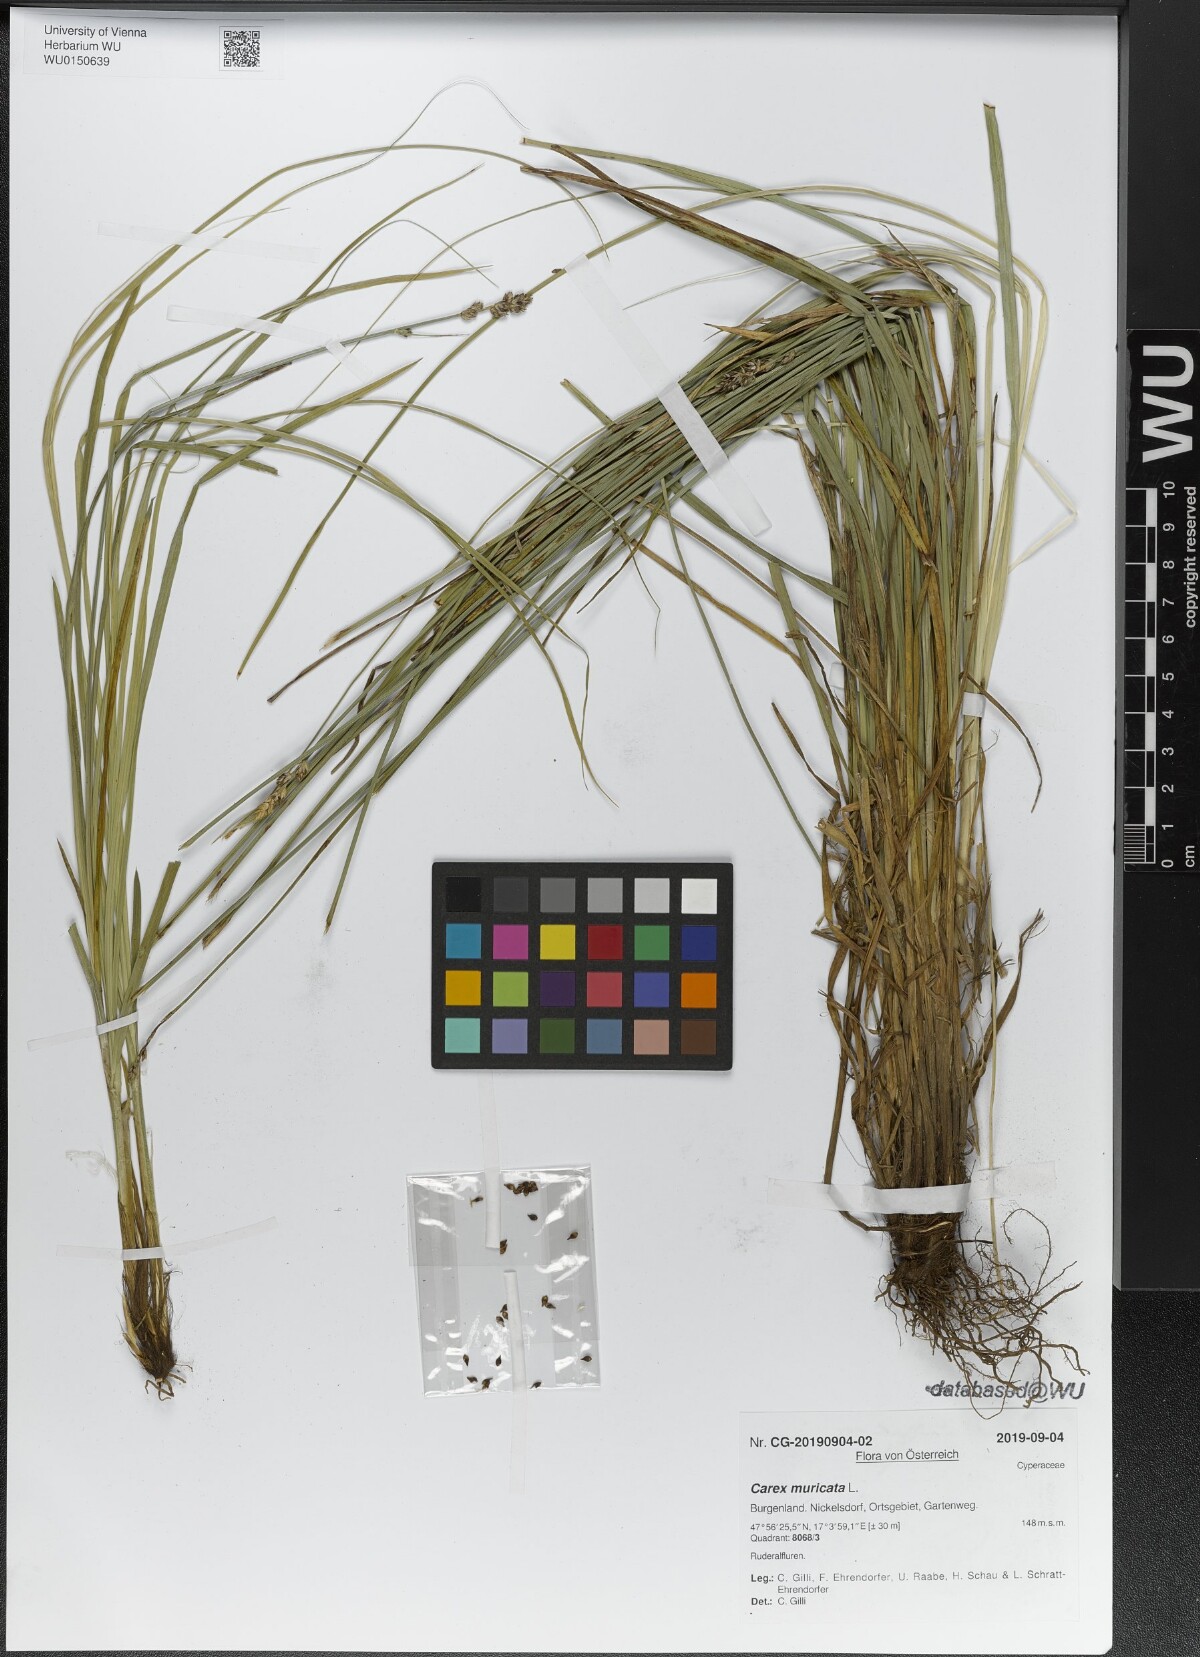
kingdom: Plantae
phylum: Tracheophyta
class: Liliopsida
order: Poales
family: Cyperaceae
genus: Carex
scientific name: Carex muricata
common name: Rough sedge
